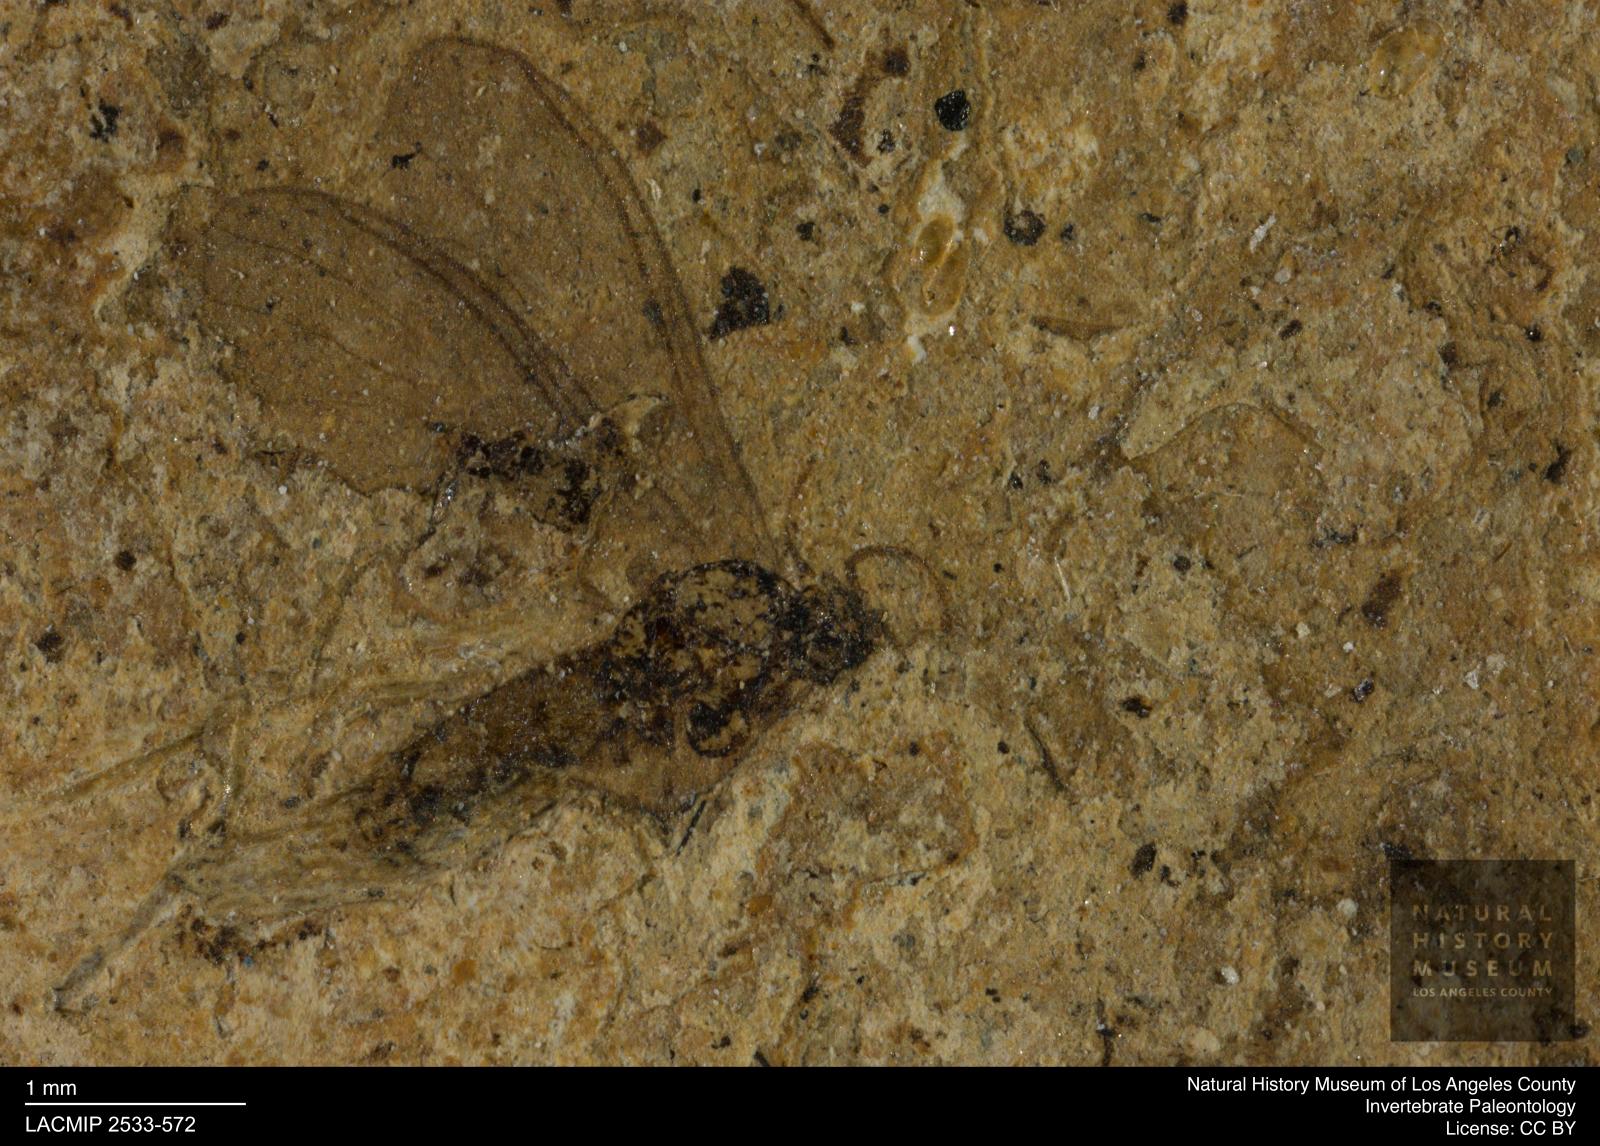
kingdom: Animalia
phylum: Arthropoda
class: Insecta
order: Diptera
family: Sciaridae
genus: Sciara
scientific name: Sciara Lycoria bicolora
